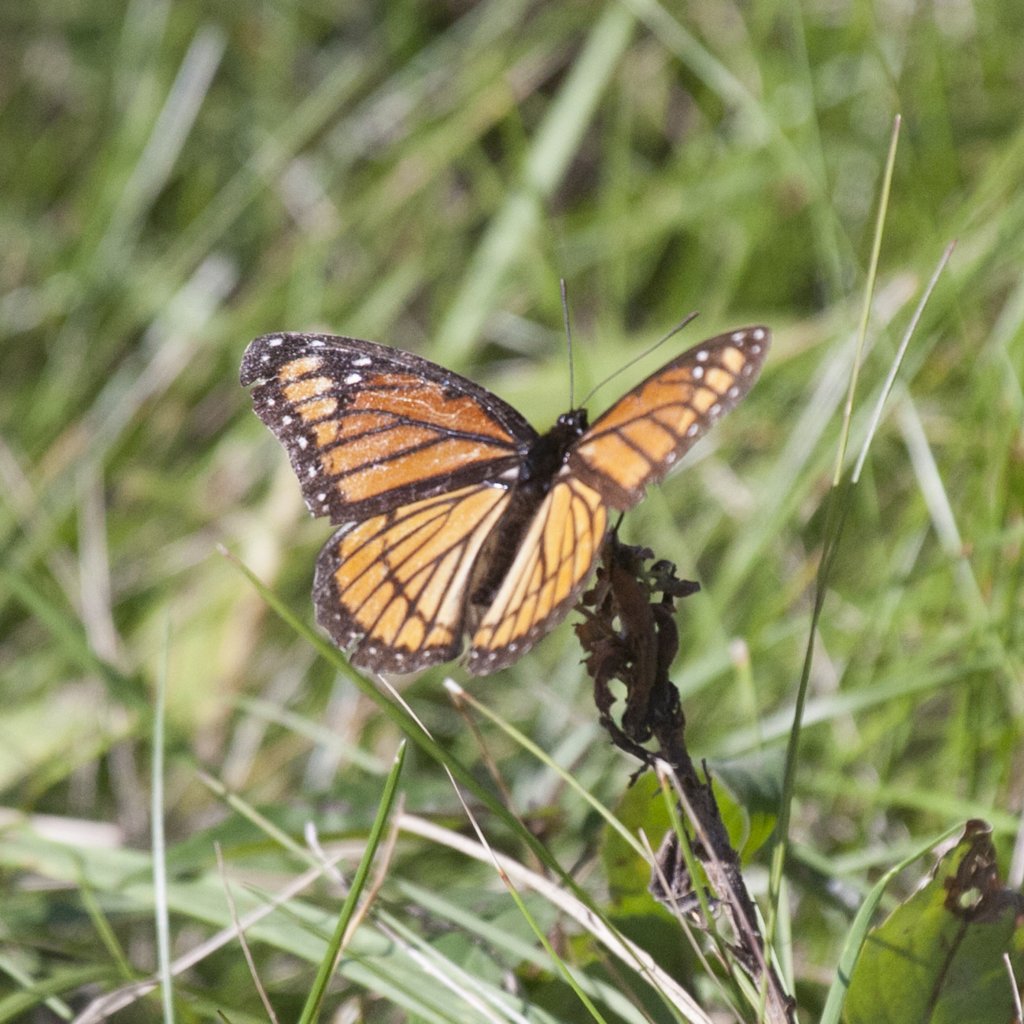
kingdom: Animalia
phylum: Arthropoda
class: Insecta
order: Lepidoptera
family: Nymphalidae
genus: Limenitis
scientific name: Limenitis archippus
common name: Viceroy
